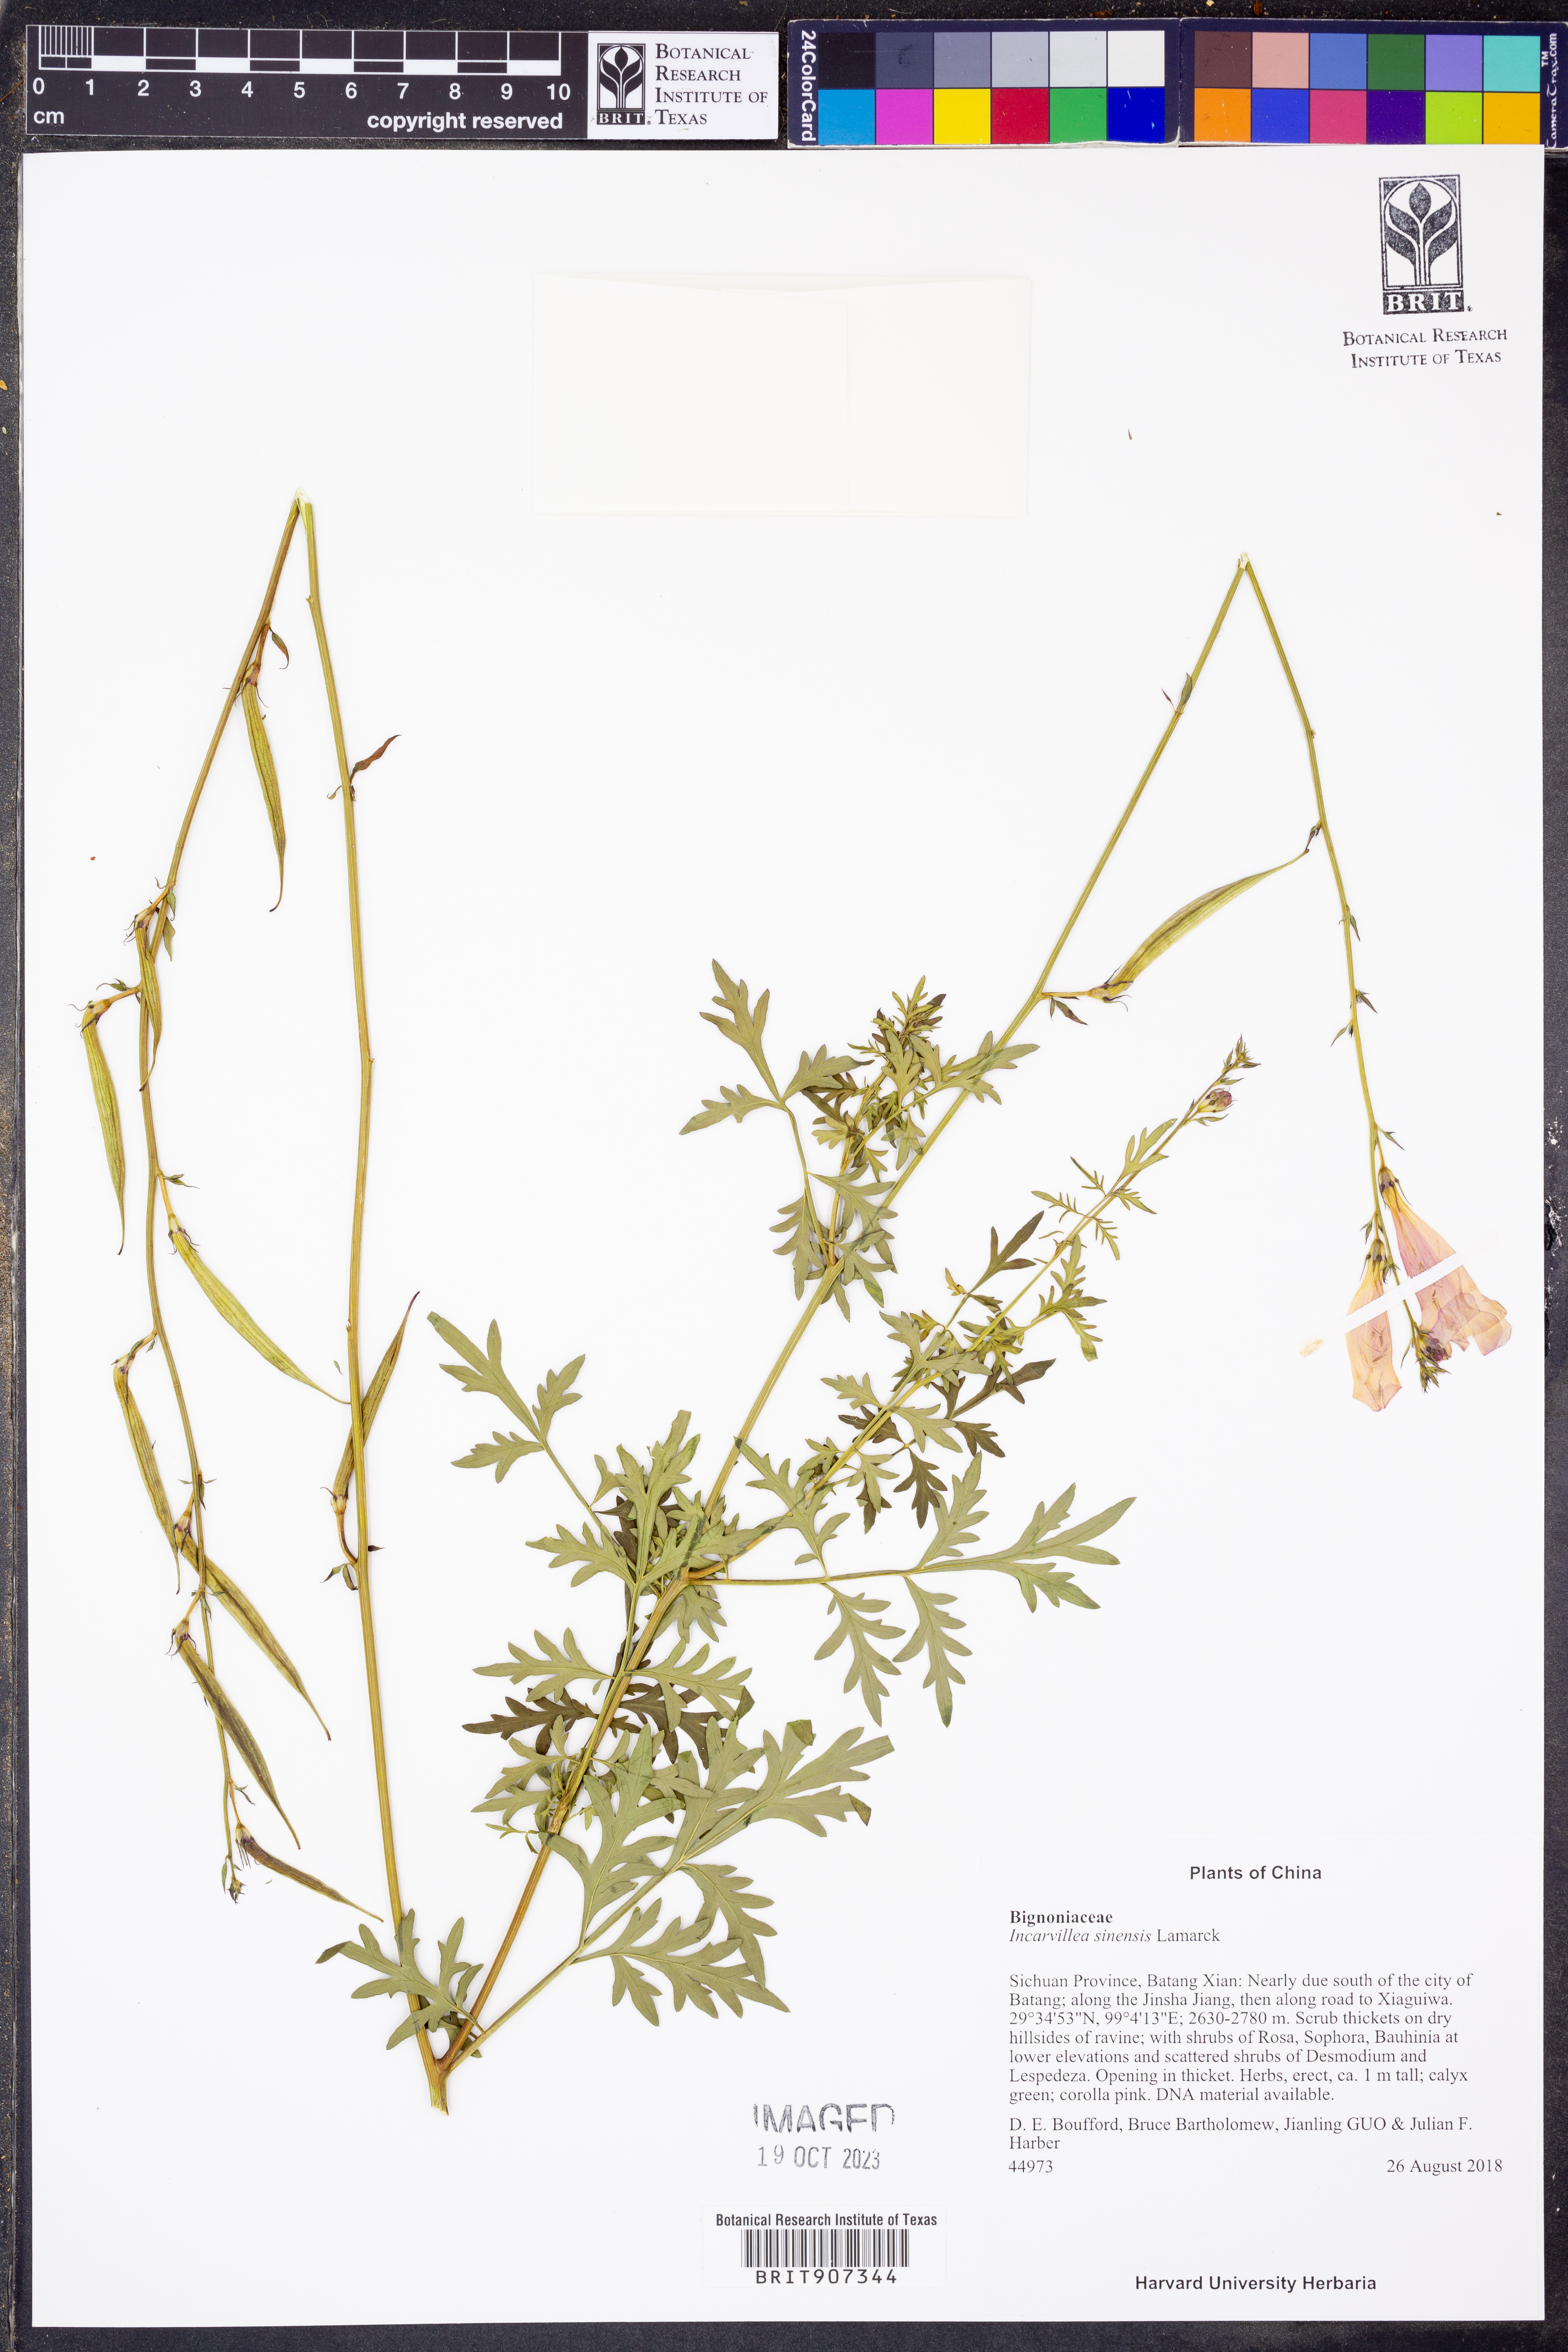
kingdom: Plantae
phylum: Tracheophyta
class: Magnoliopsida
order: Lamiales
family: Bignoniaceae
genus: Incarvillea
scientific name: Incarvillea sinensis
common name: Trumpet-flower
